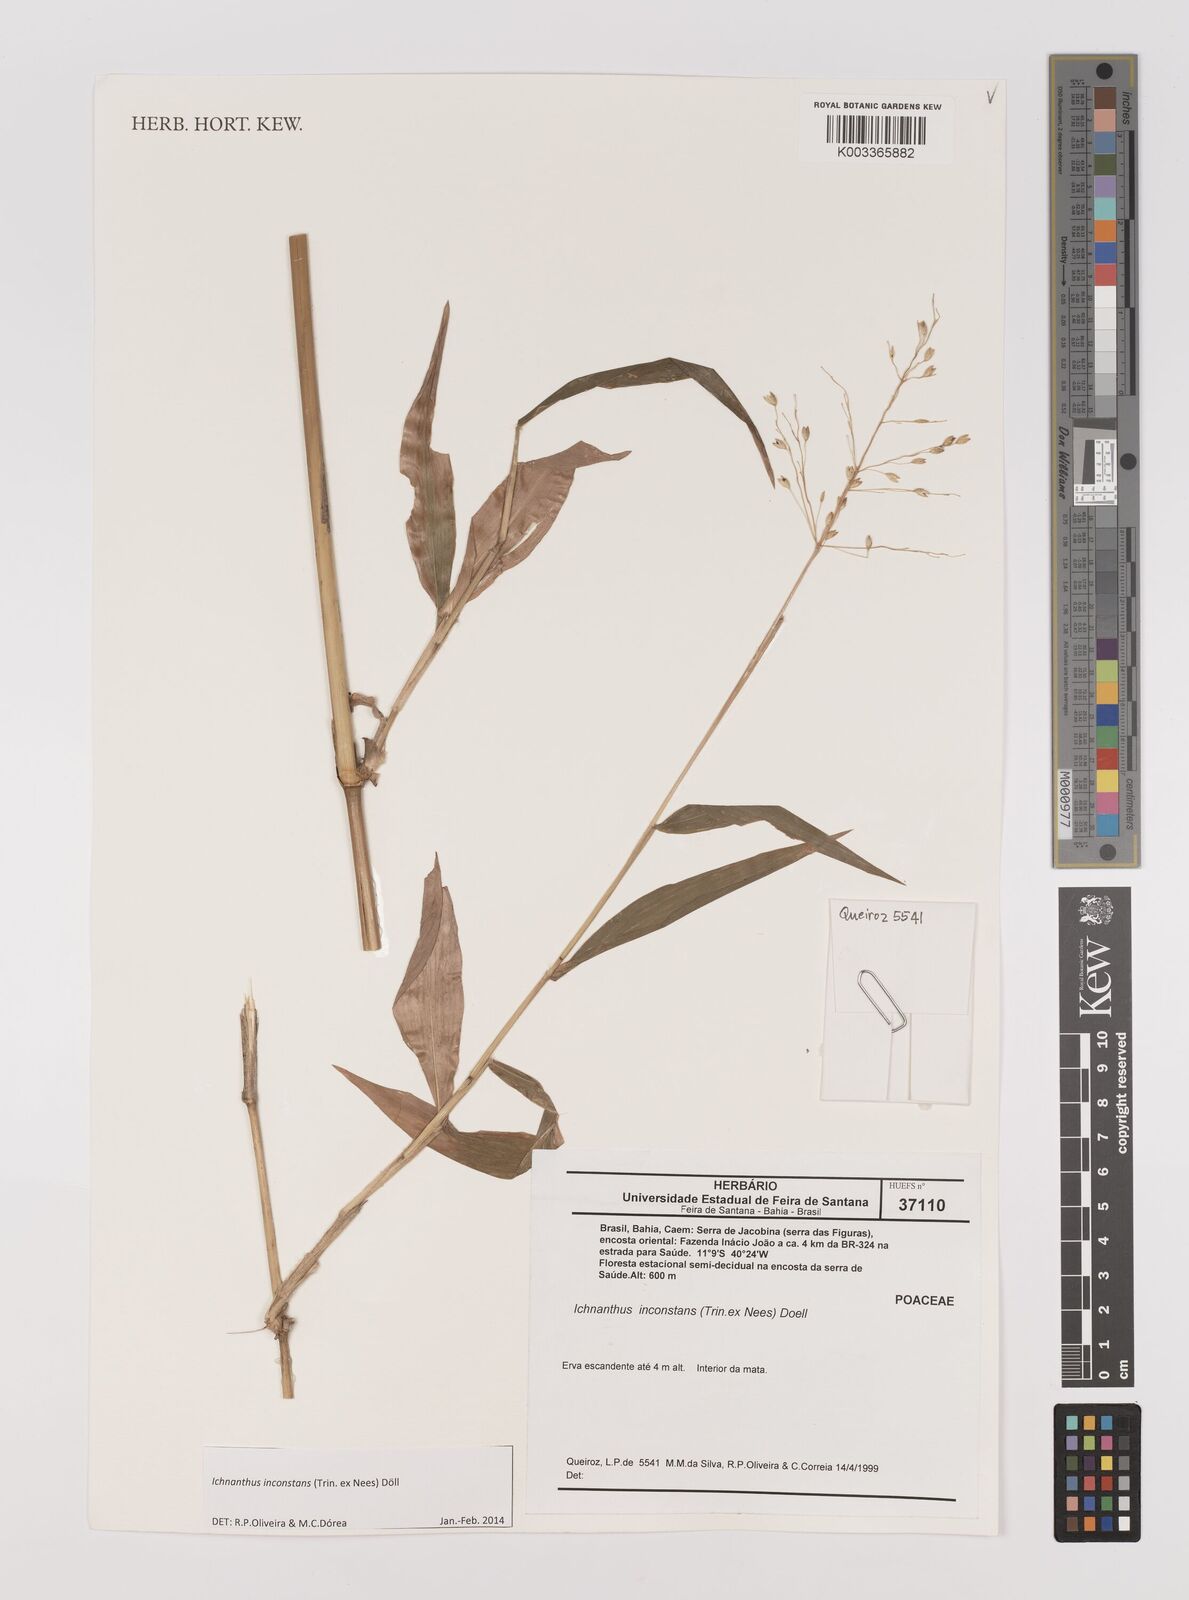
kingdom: Plantae
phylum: Tracheophyta
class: Liliopsida
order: Poales
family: Poaceae
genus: Ichnanthus
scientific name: Ichnanthus inconstans
